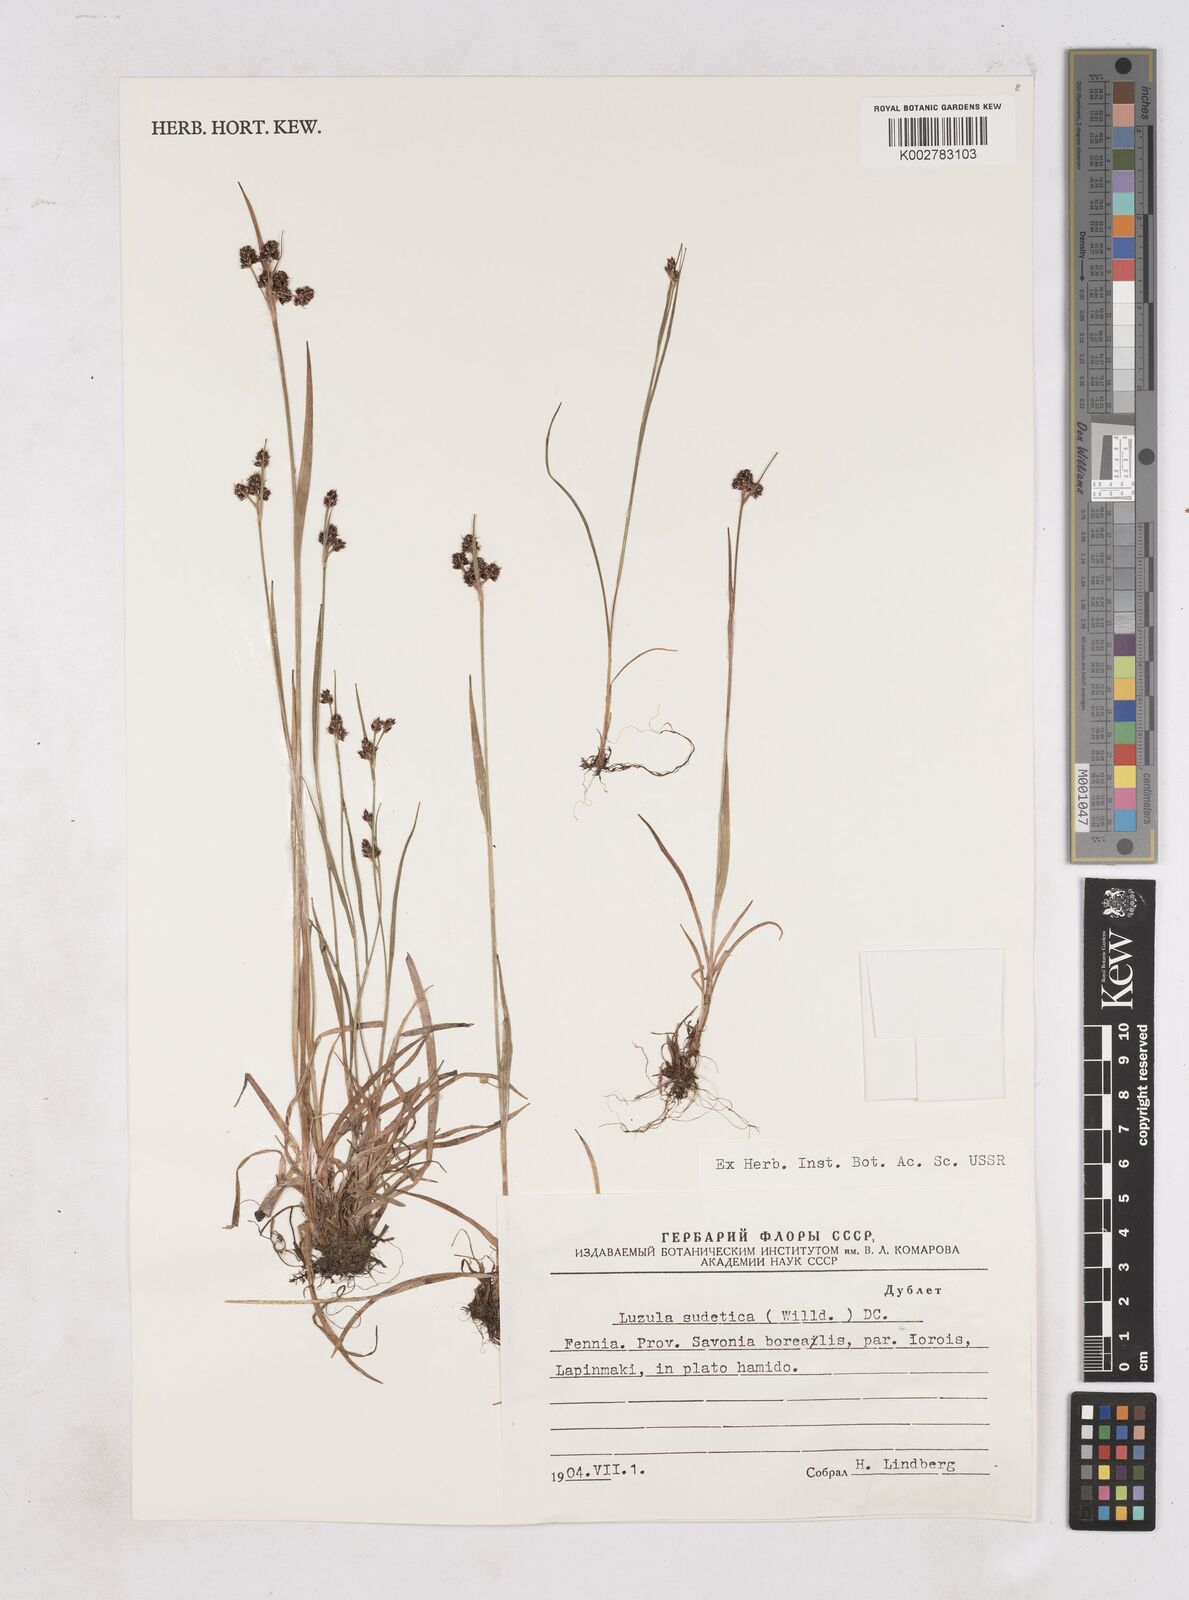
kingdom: Plantae
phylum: Tracheophyta
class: Liliopsida
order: Poales
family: Juncaceae
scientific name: Juncaceae
